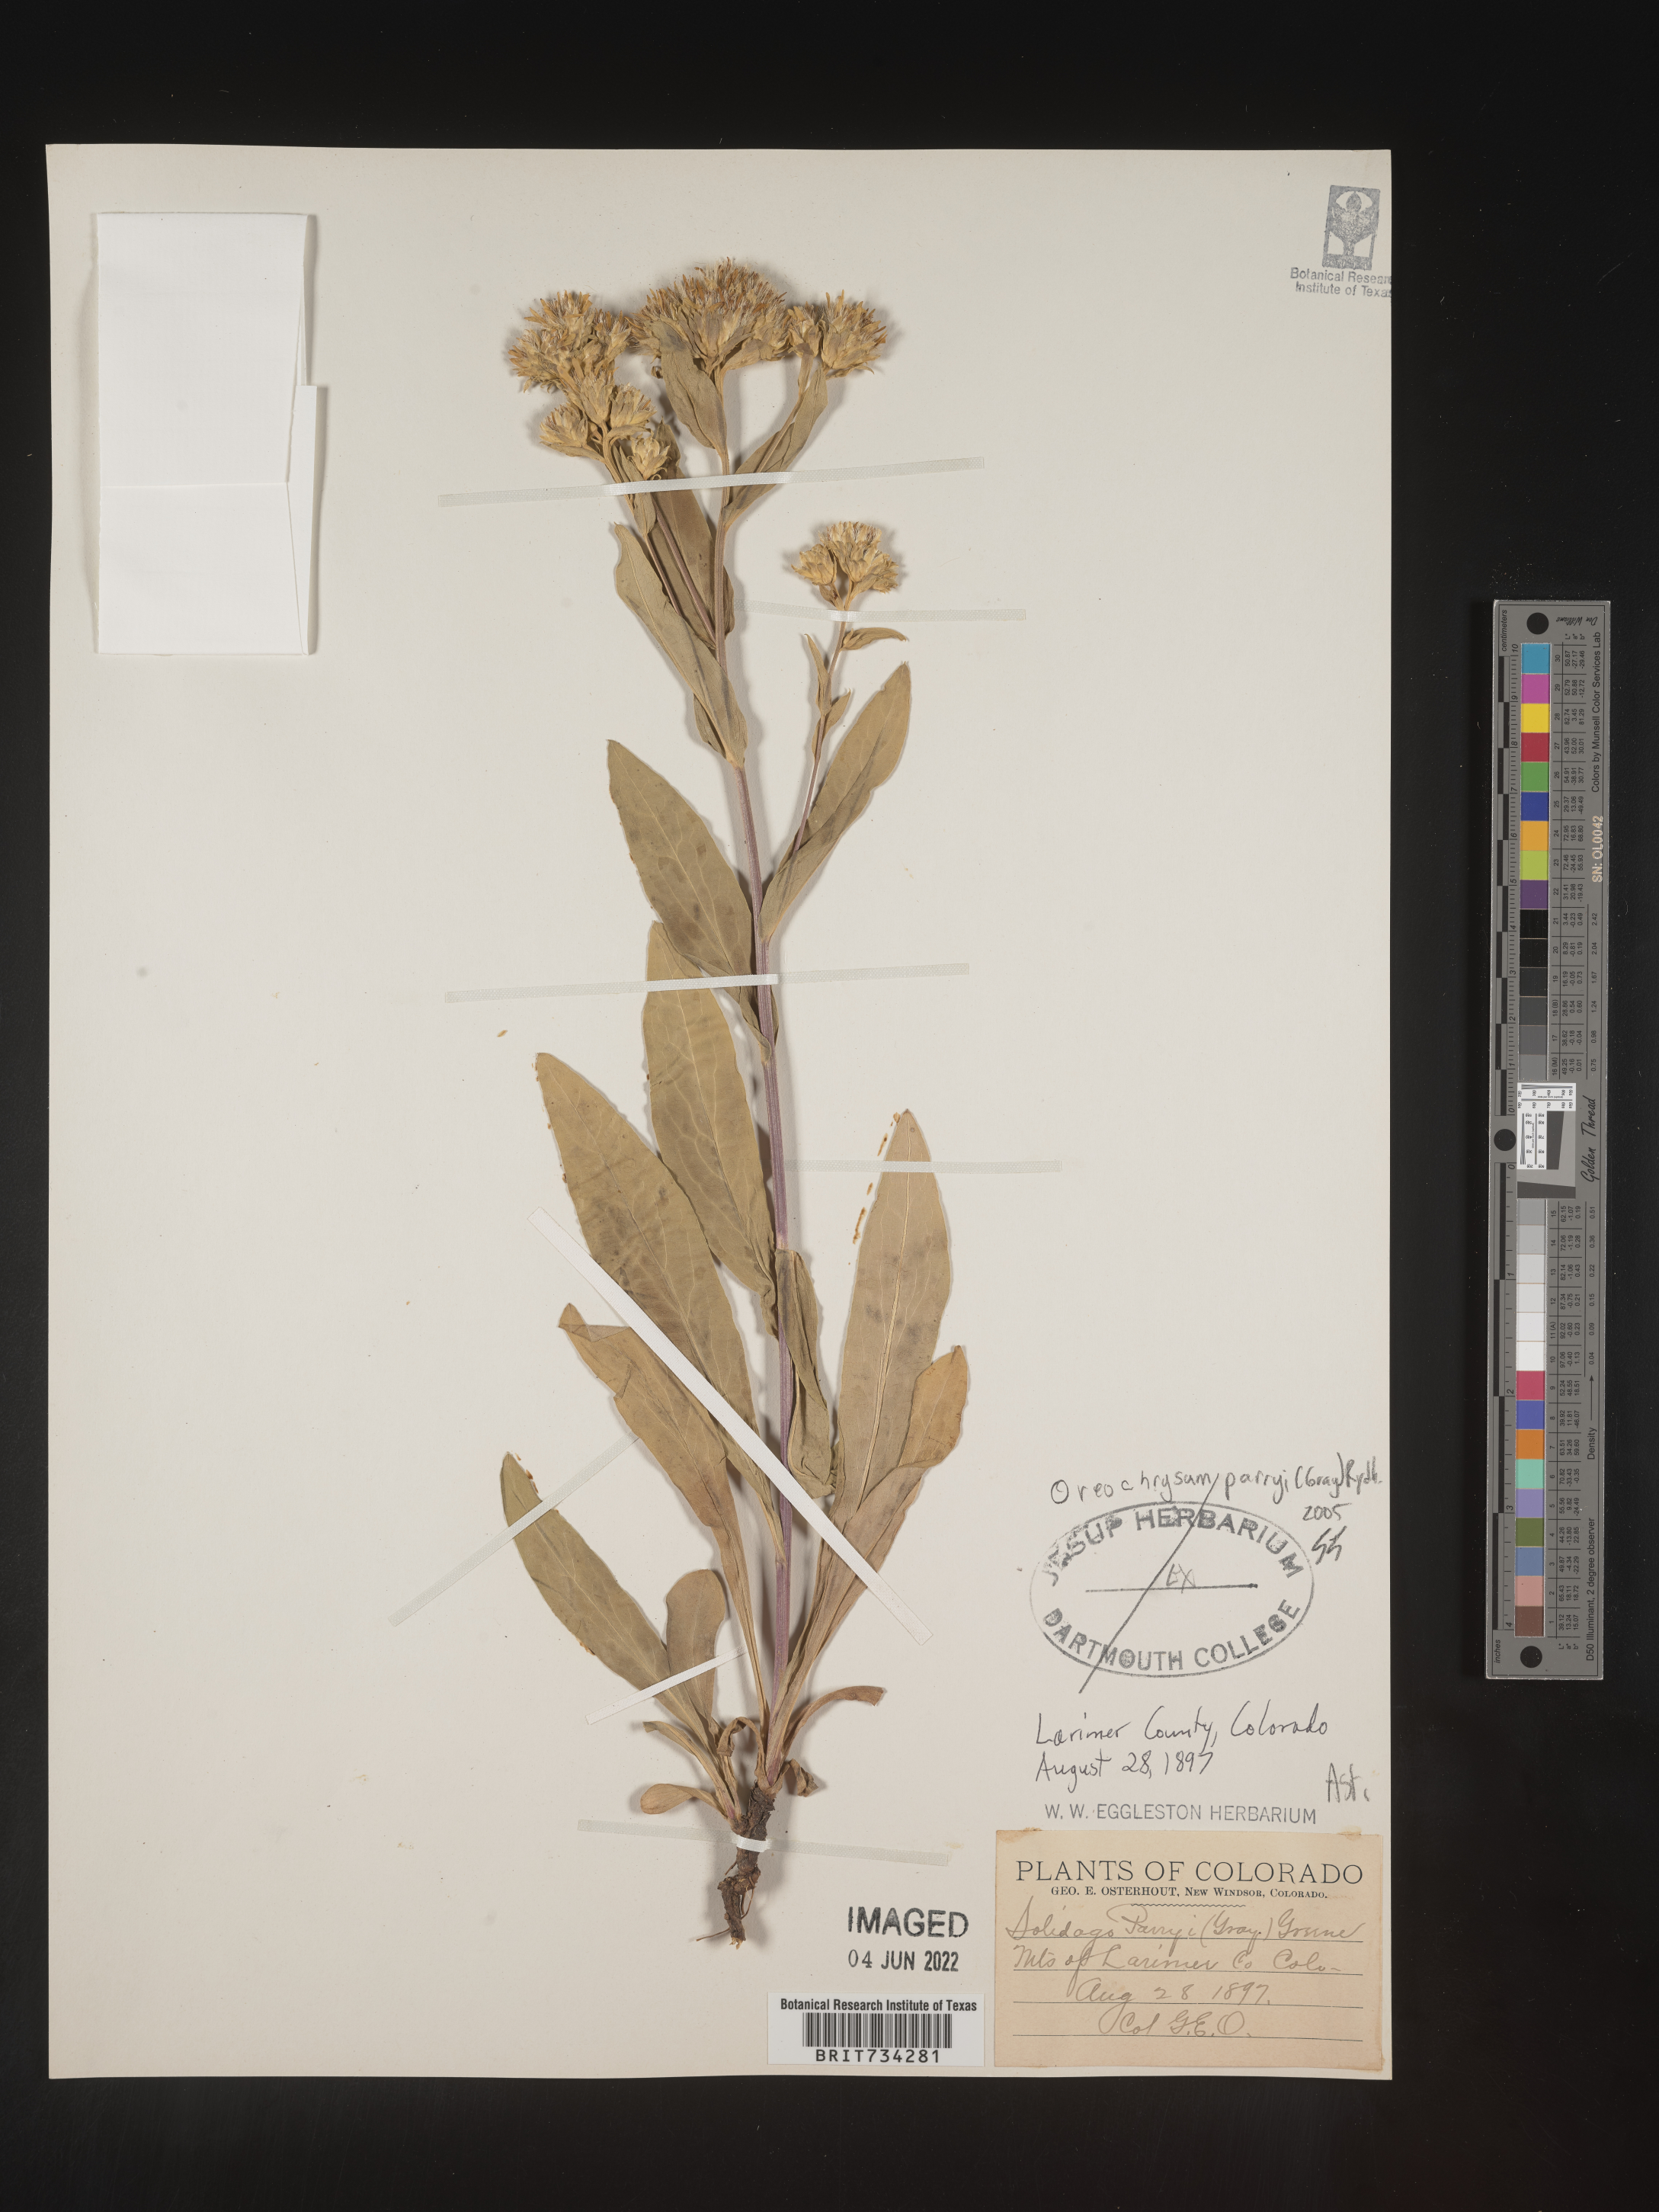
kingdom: Plantae
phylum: Tracheophyta
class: Magnoliopsida
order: Asterales
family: Asteraceae
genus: Oreochrysum
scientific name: Oreochrysum parryi
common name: Parry's goldenweed
